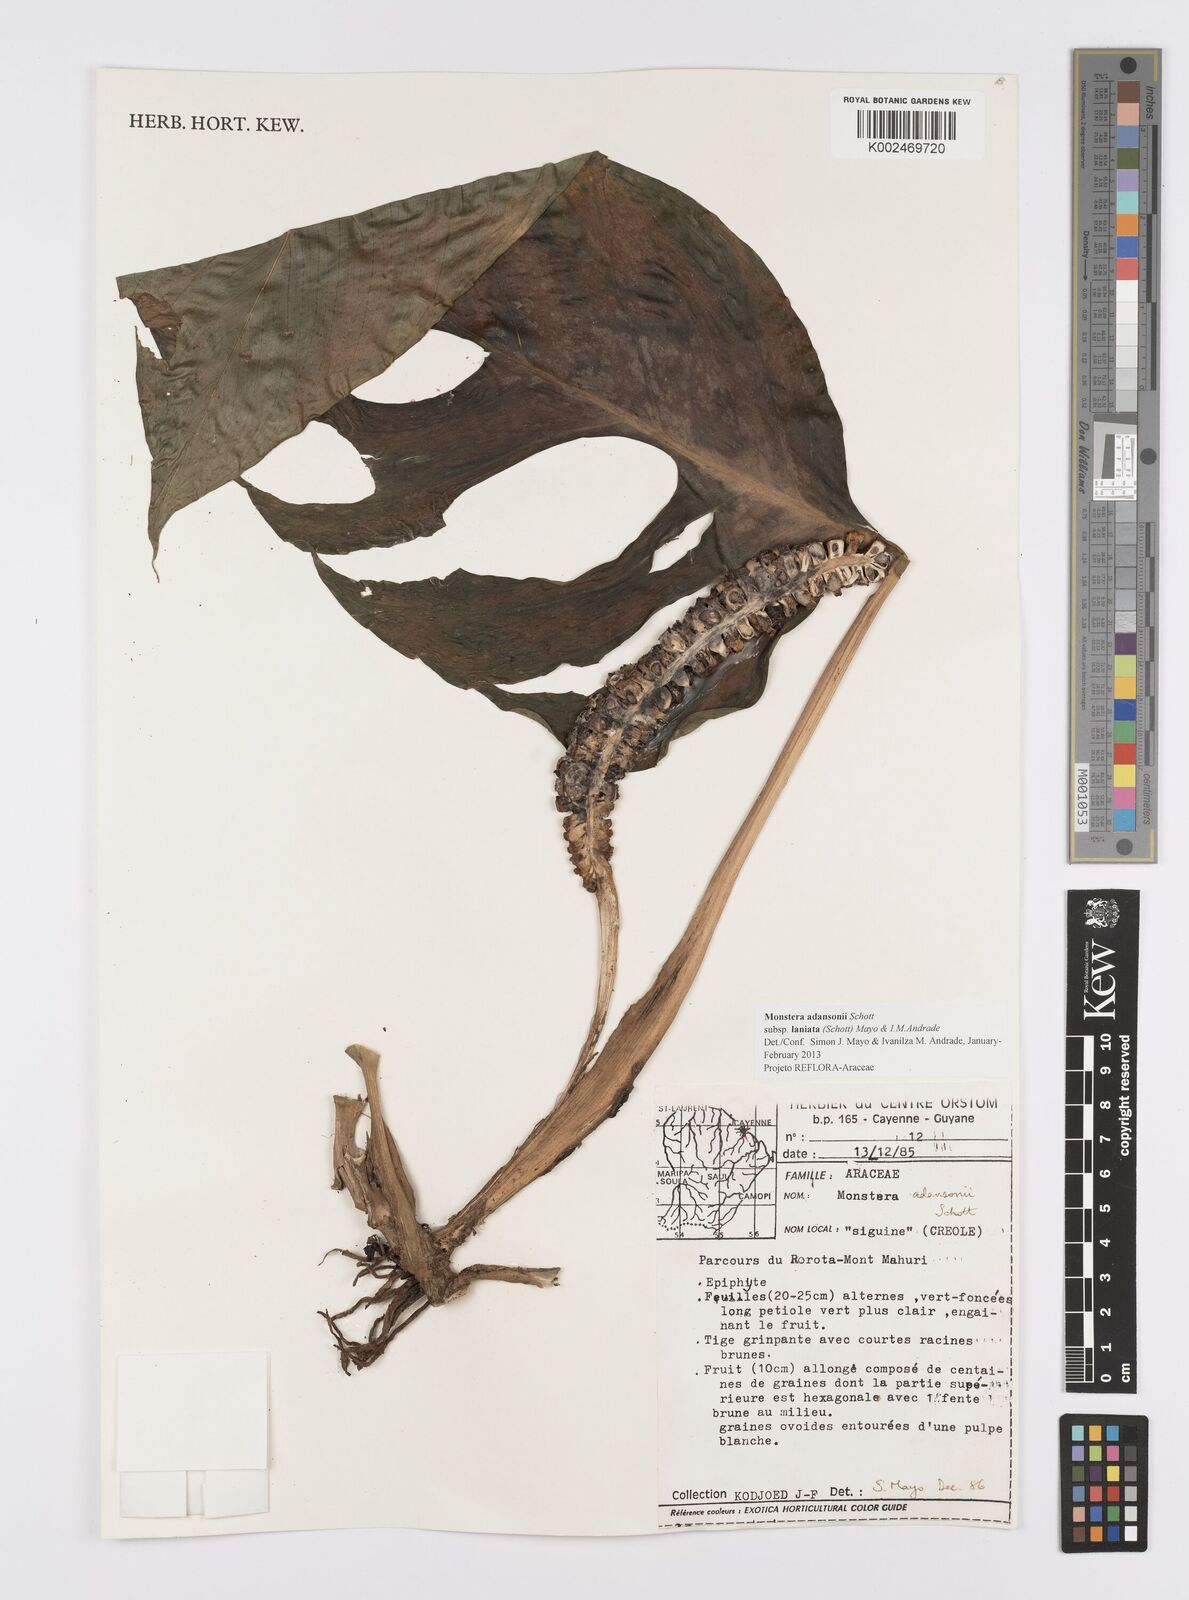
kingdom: Plantae
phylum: Tracheophyta
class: Liliopsida
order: Alismatales
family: Araceae
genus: Monstera
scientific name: Monstera adansonii
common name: Tarovine
